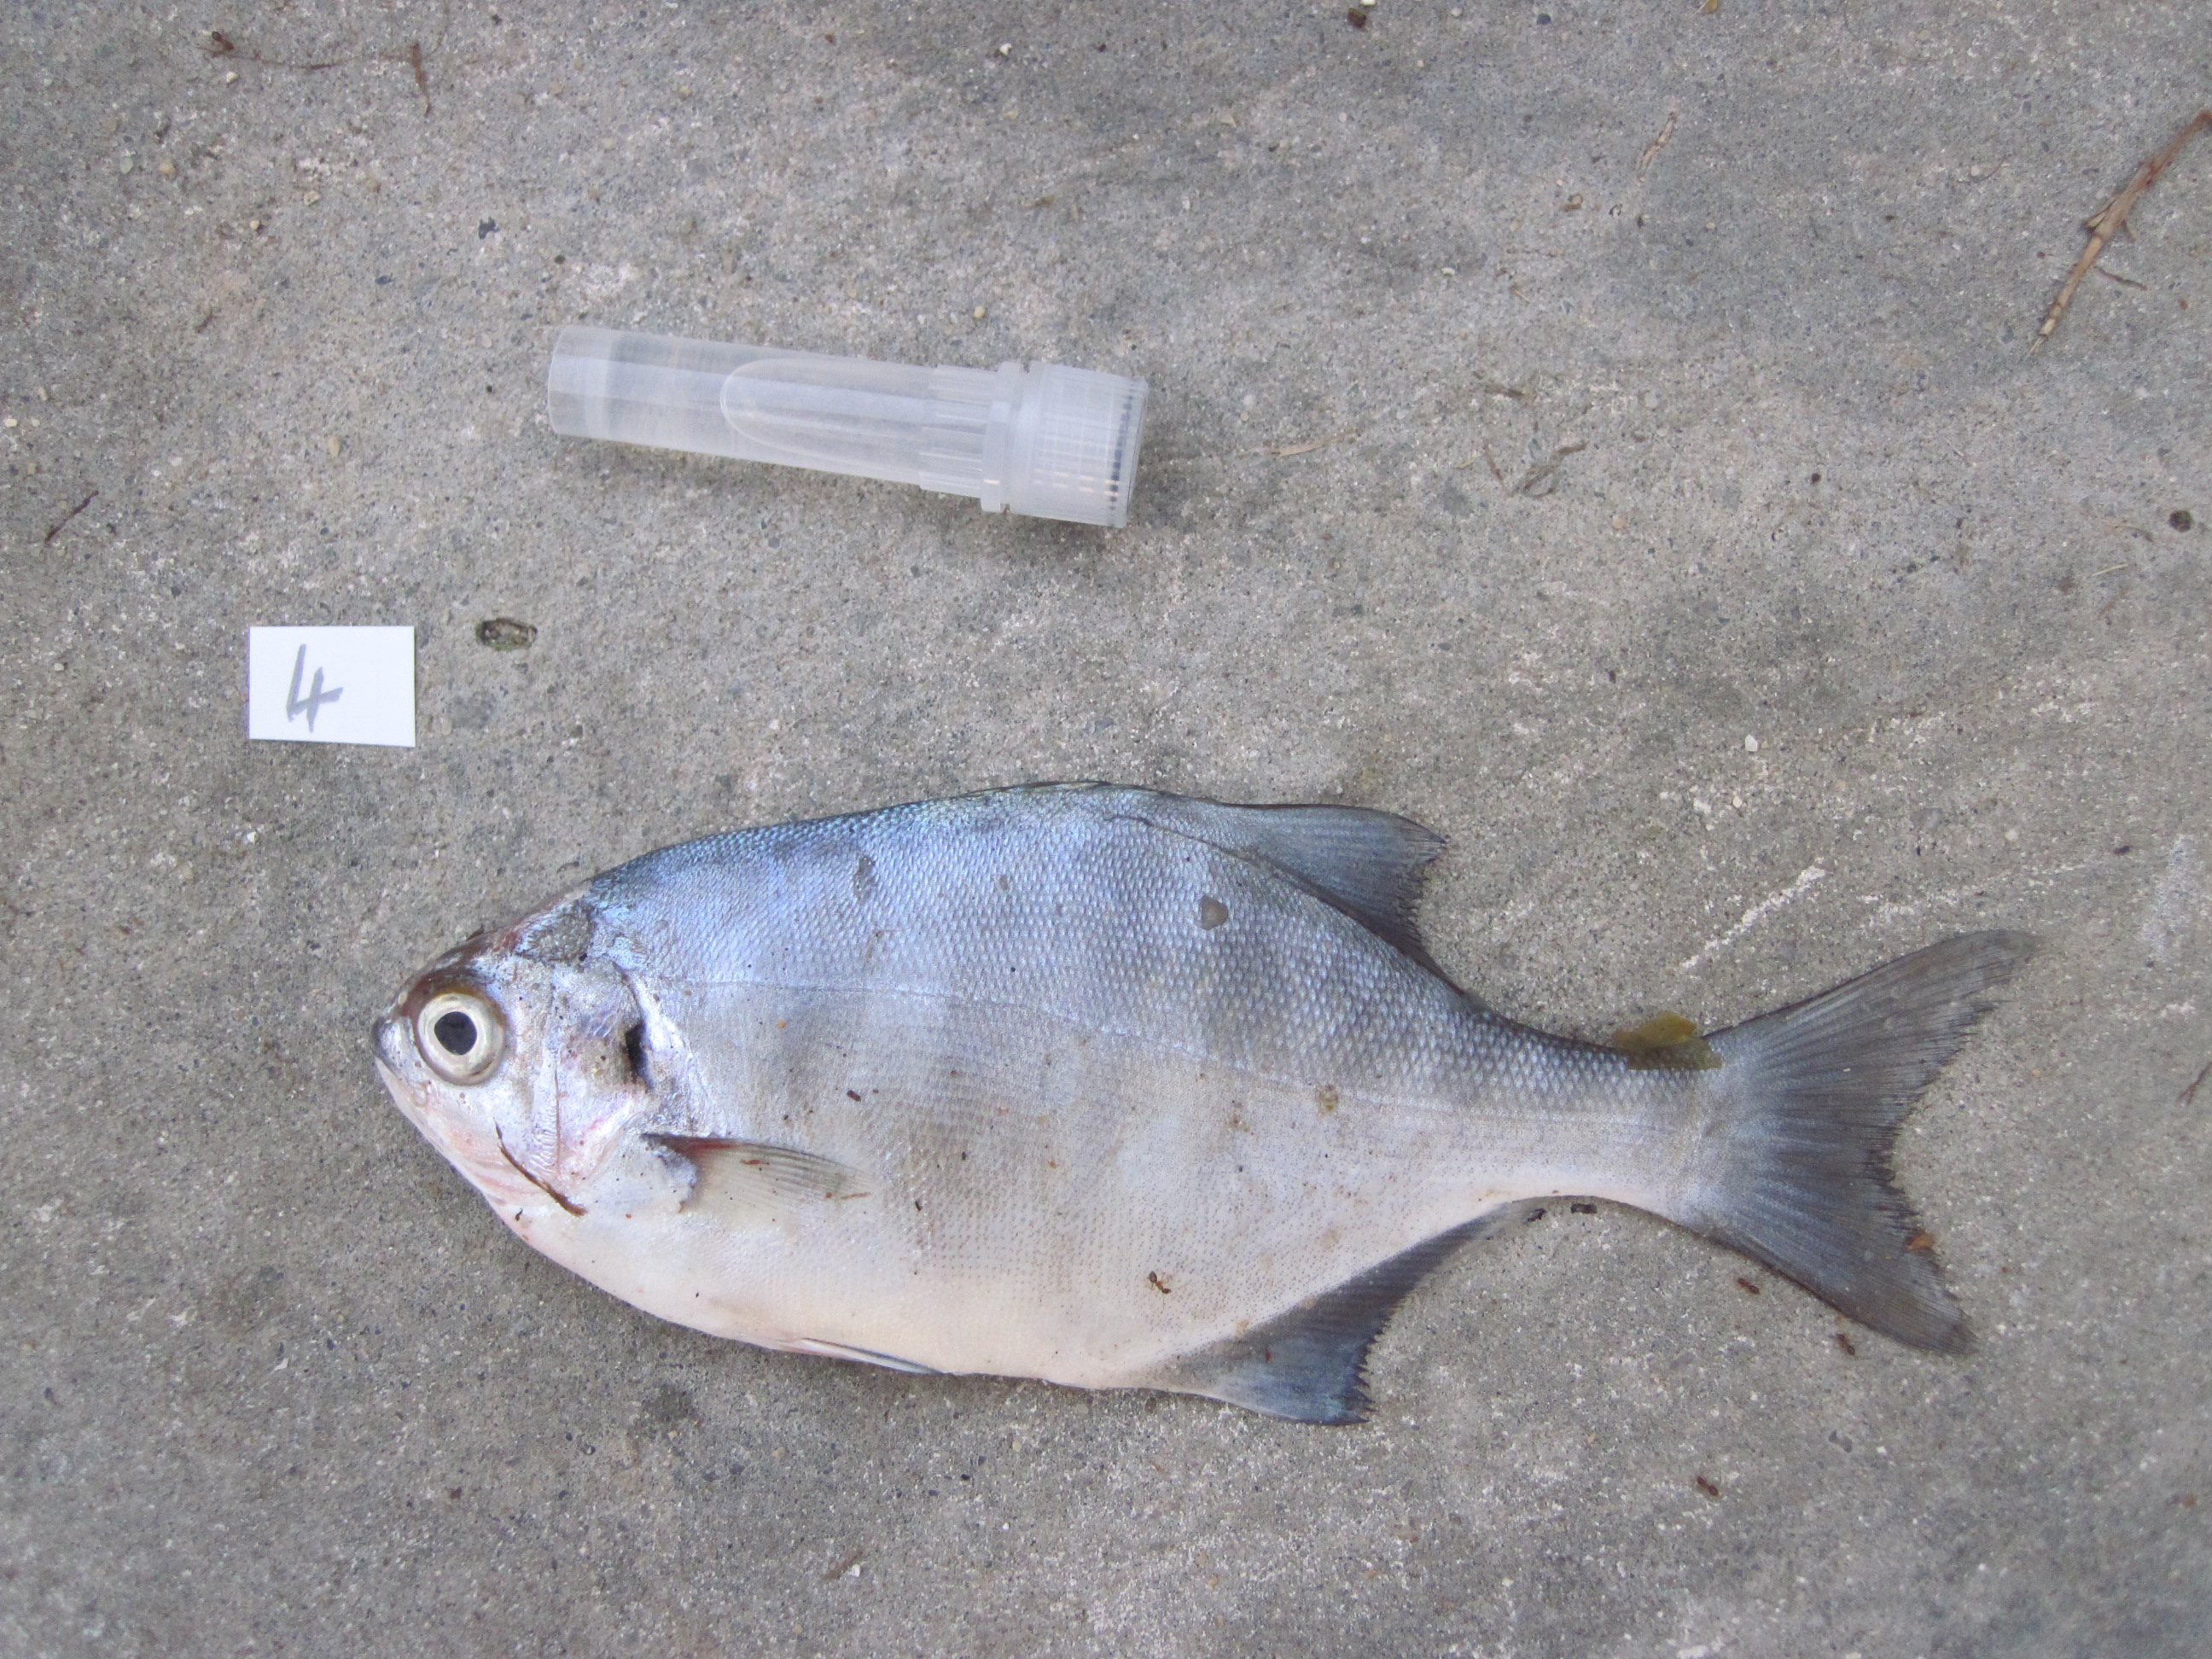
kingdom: Animalia
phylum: Chordata
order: Perciformes
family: Kyphosidae
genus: Neoscorpis
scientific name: Neoscorpis lithophilus
